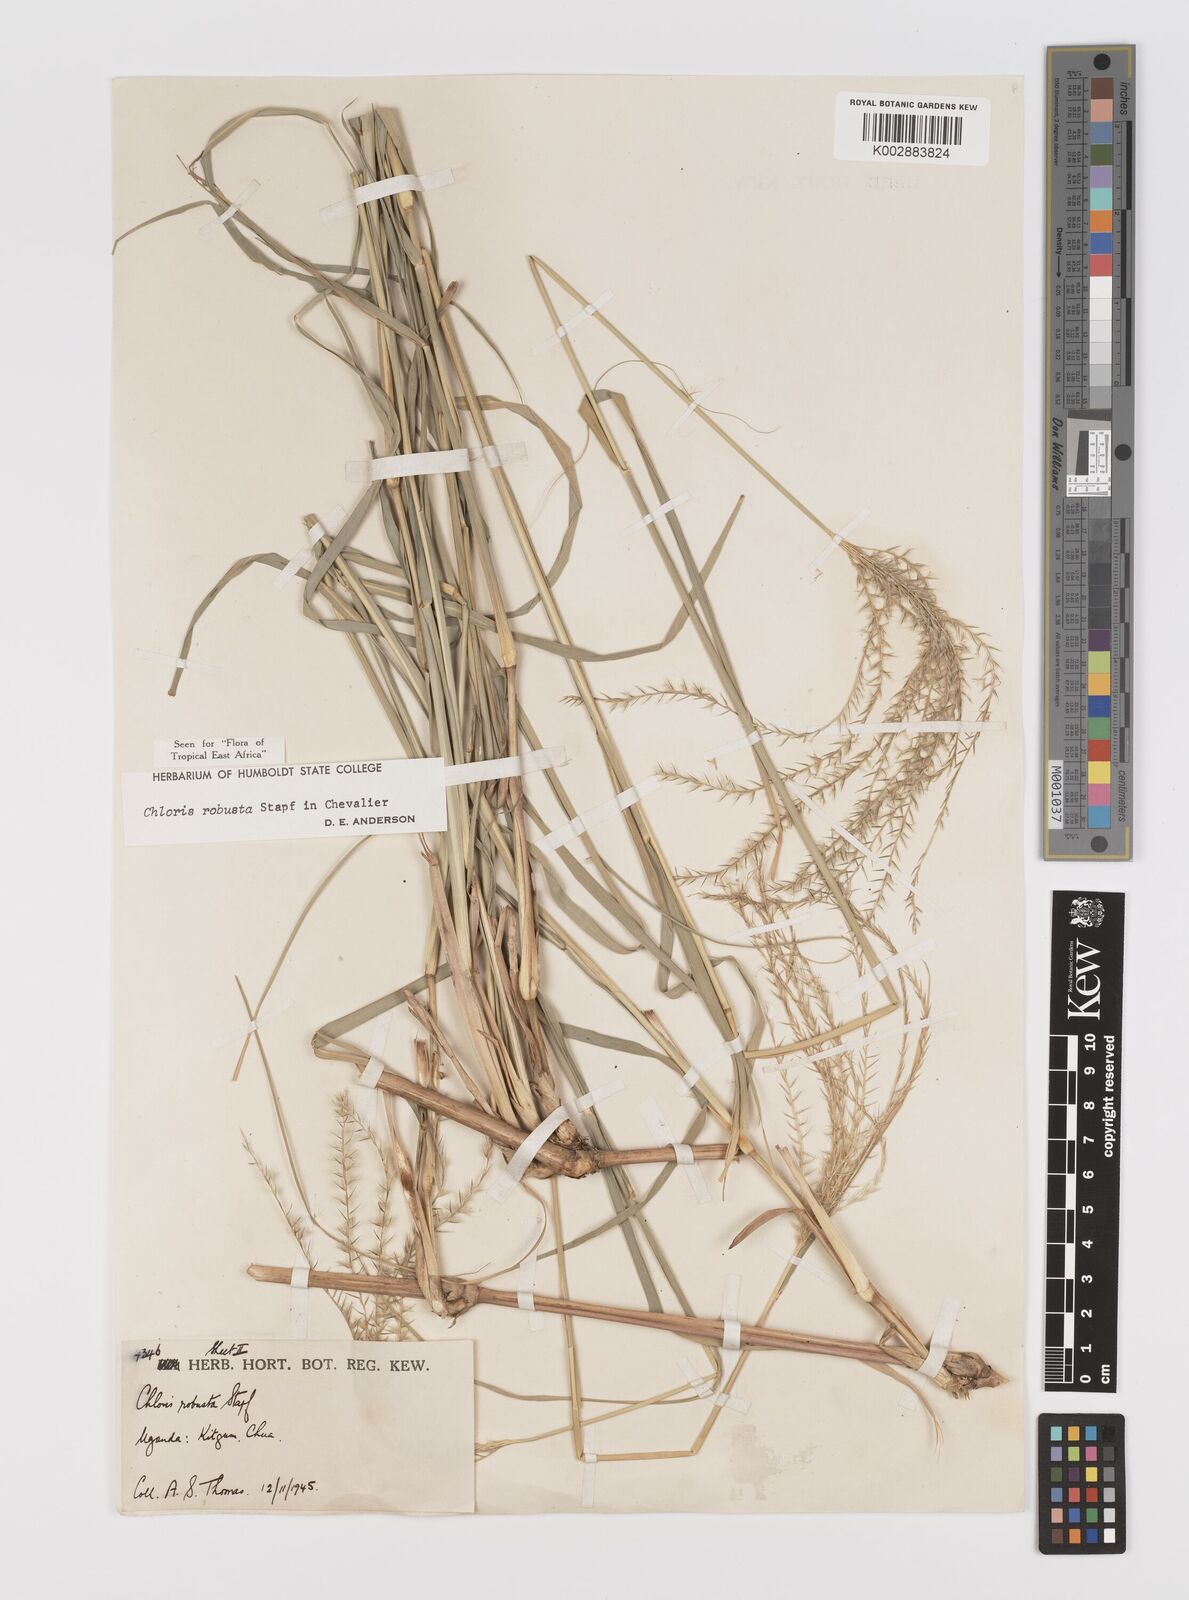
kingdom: Plantae
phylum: Tracheophyta
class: Liliopsida
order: Poales
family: Poaceae
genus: Chloris
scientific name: Chloris robusta
